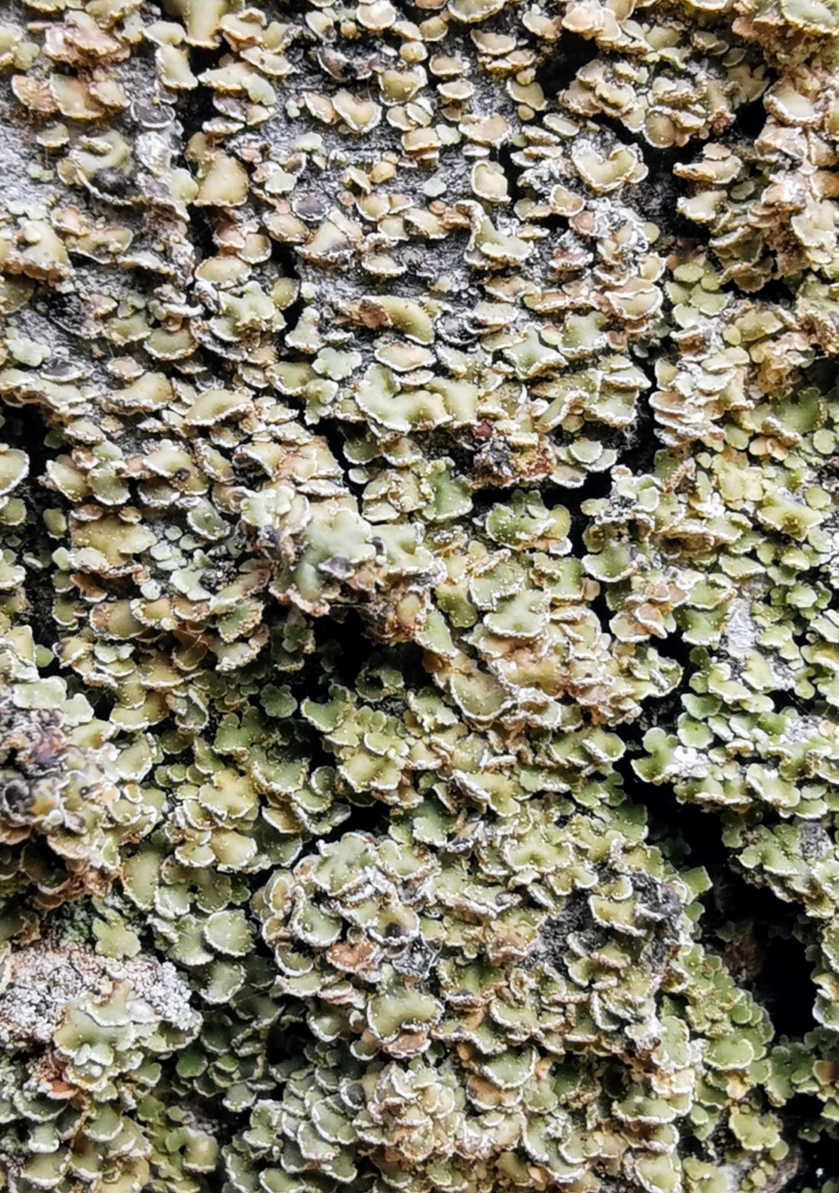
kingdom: Fungi
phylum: Ascomycota
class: Lecanoromycetes
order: Umbilicariales
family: Ophioparmaceae
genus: Hypocenomyce
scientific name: Hypocenomyce scalaris
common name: småskællet muslinglav
